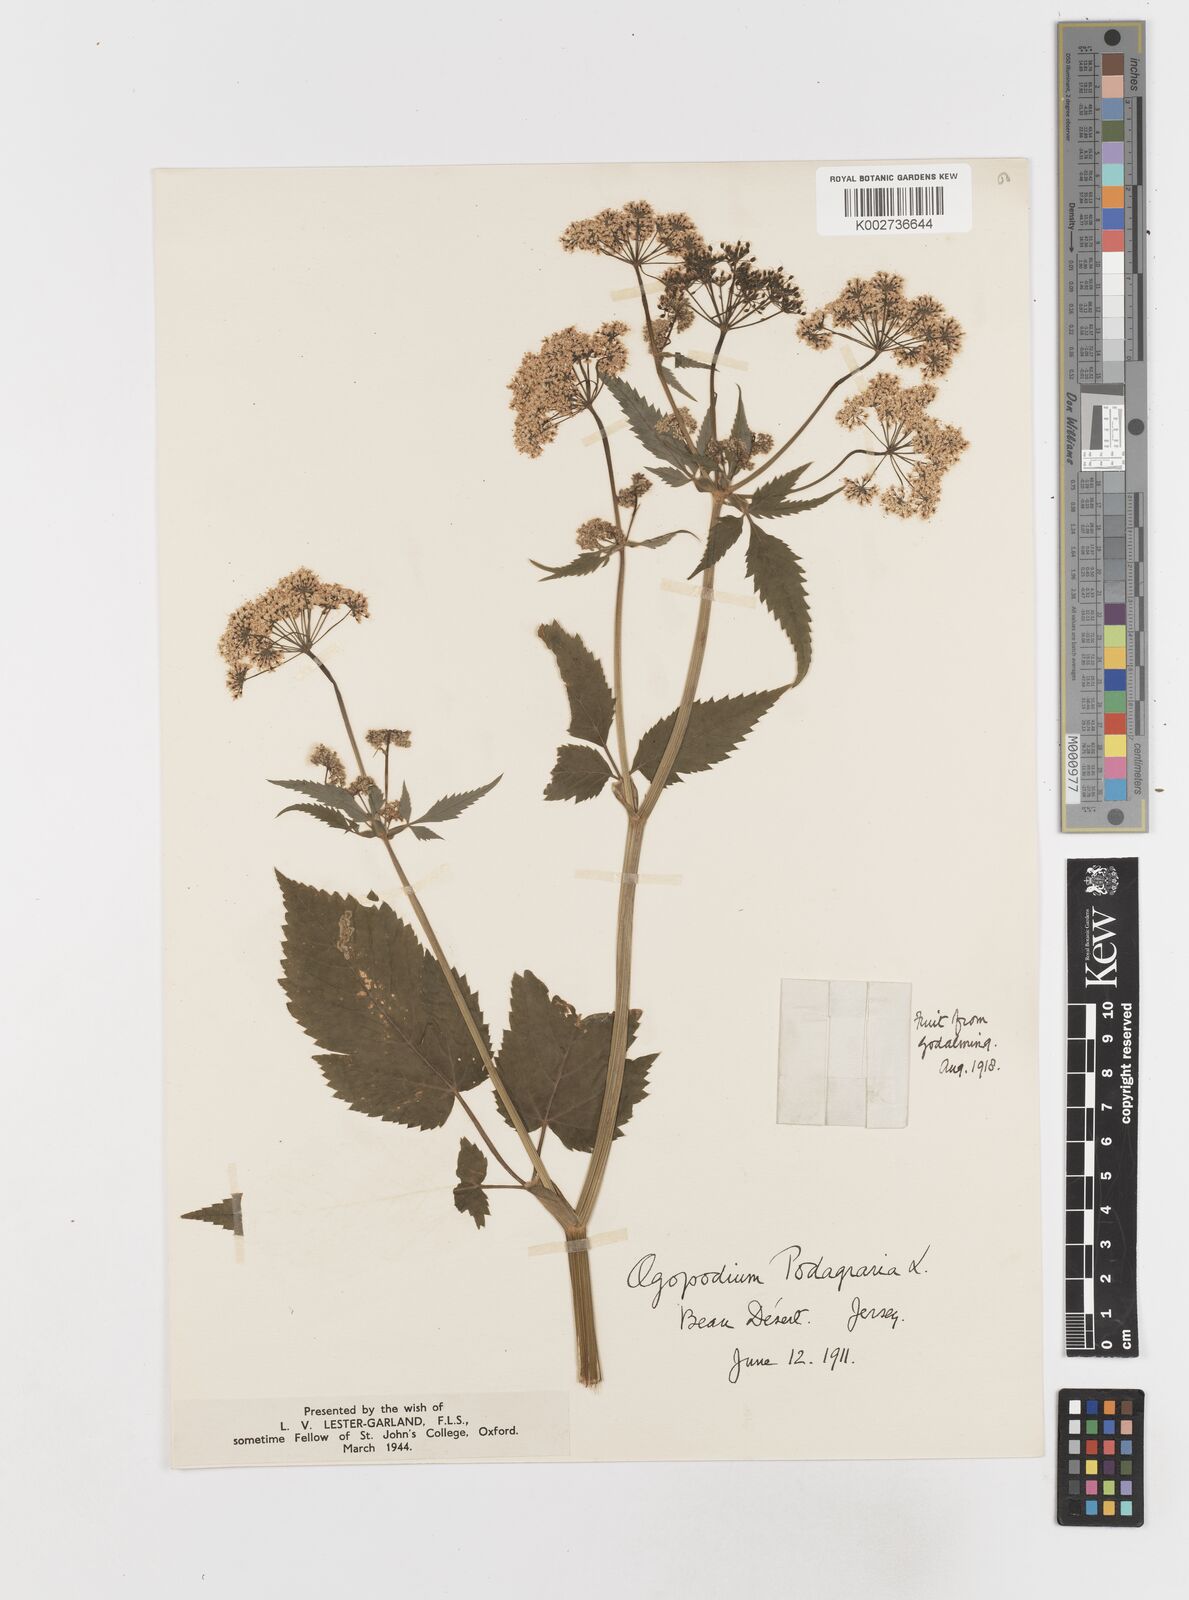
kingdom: Plantae
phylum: Tracheophyta
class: Magnoliopsida
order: Apiales
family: Apiaceae
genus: Aegopodium
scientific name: Aegopodium podagraria
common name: Ground-elder
